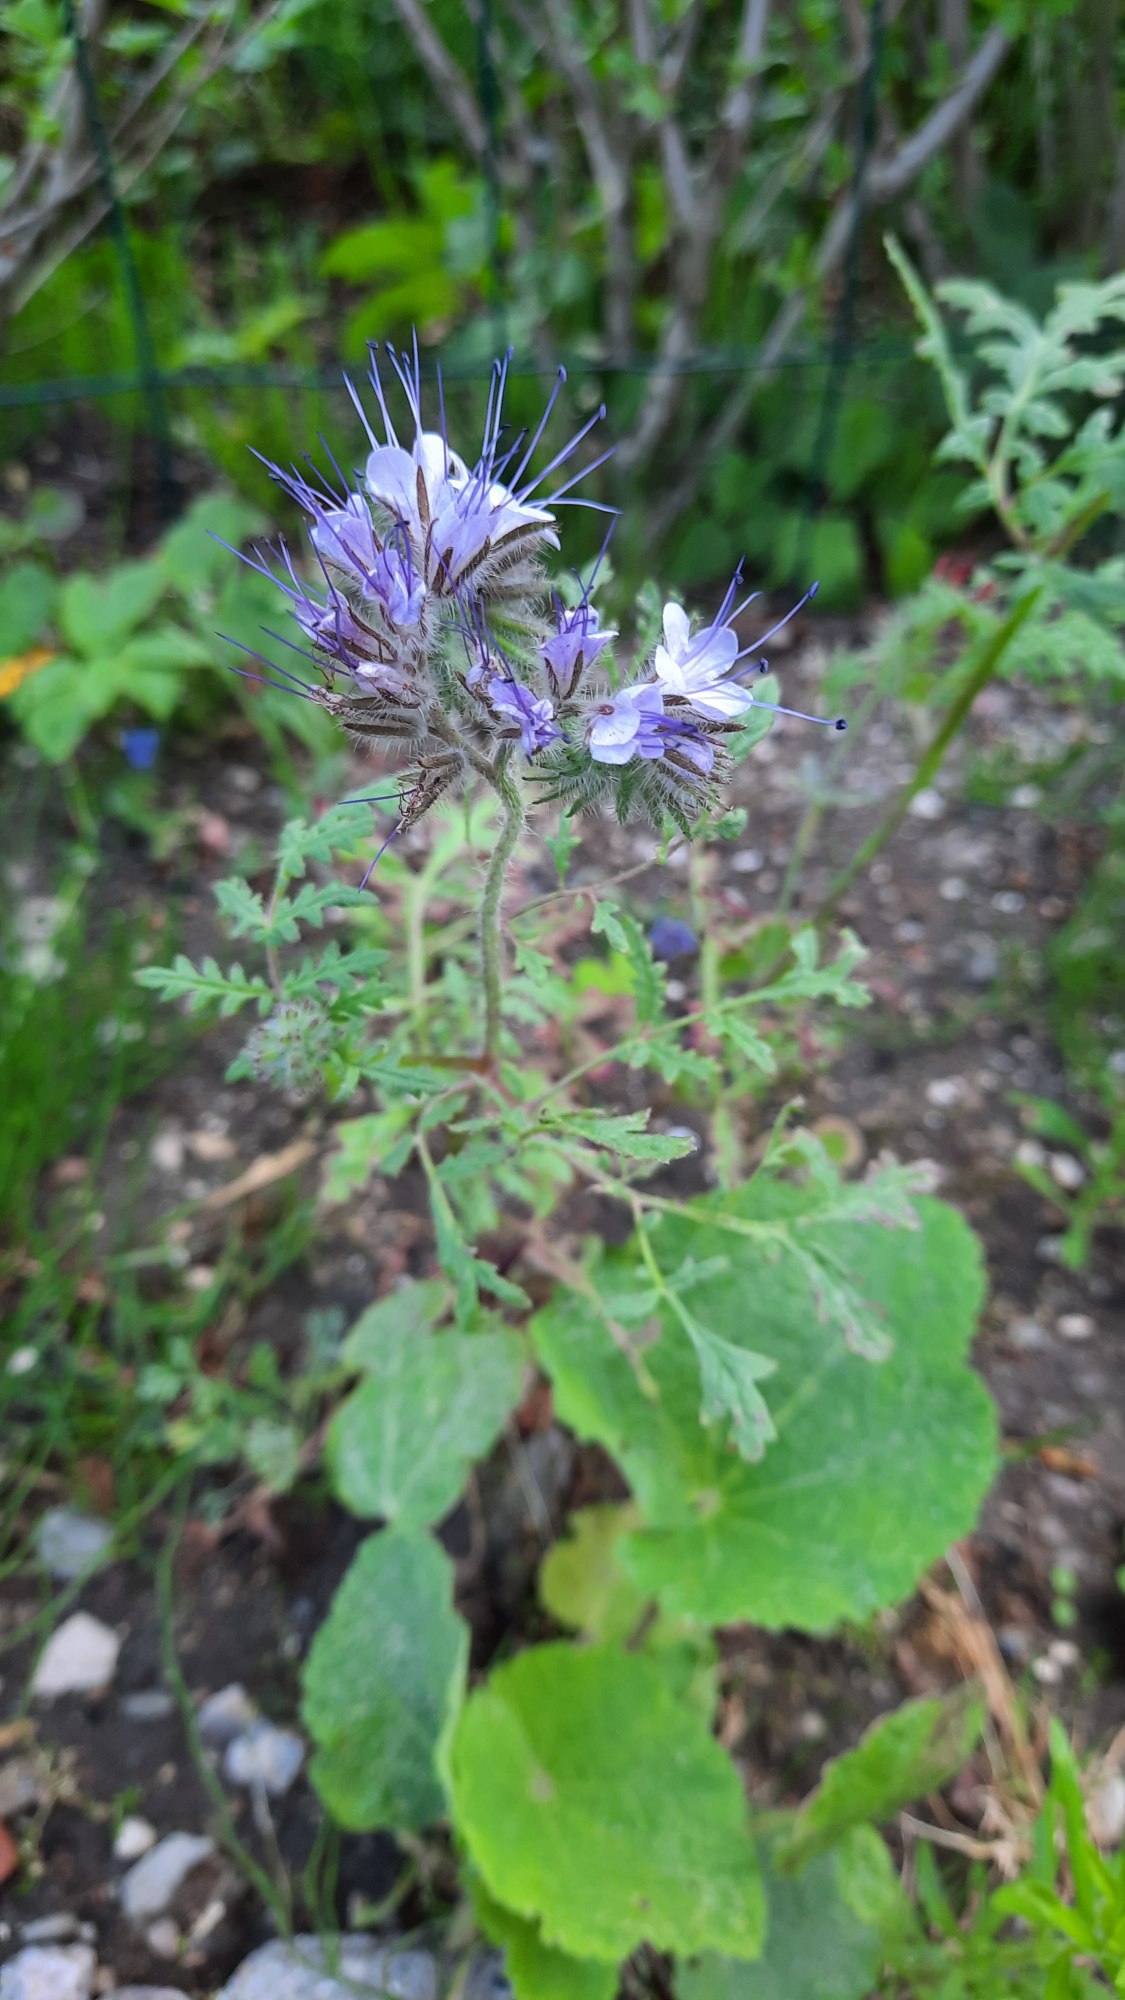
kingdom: Plantae
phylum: Tracheophyta
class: Magnoliopsida
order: Boraginales
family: Hydrophyllaceae
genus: Phacelia
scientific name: Phacelia tanacetifolia
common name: Honningurt
